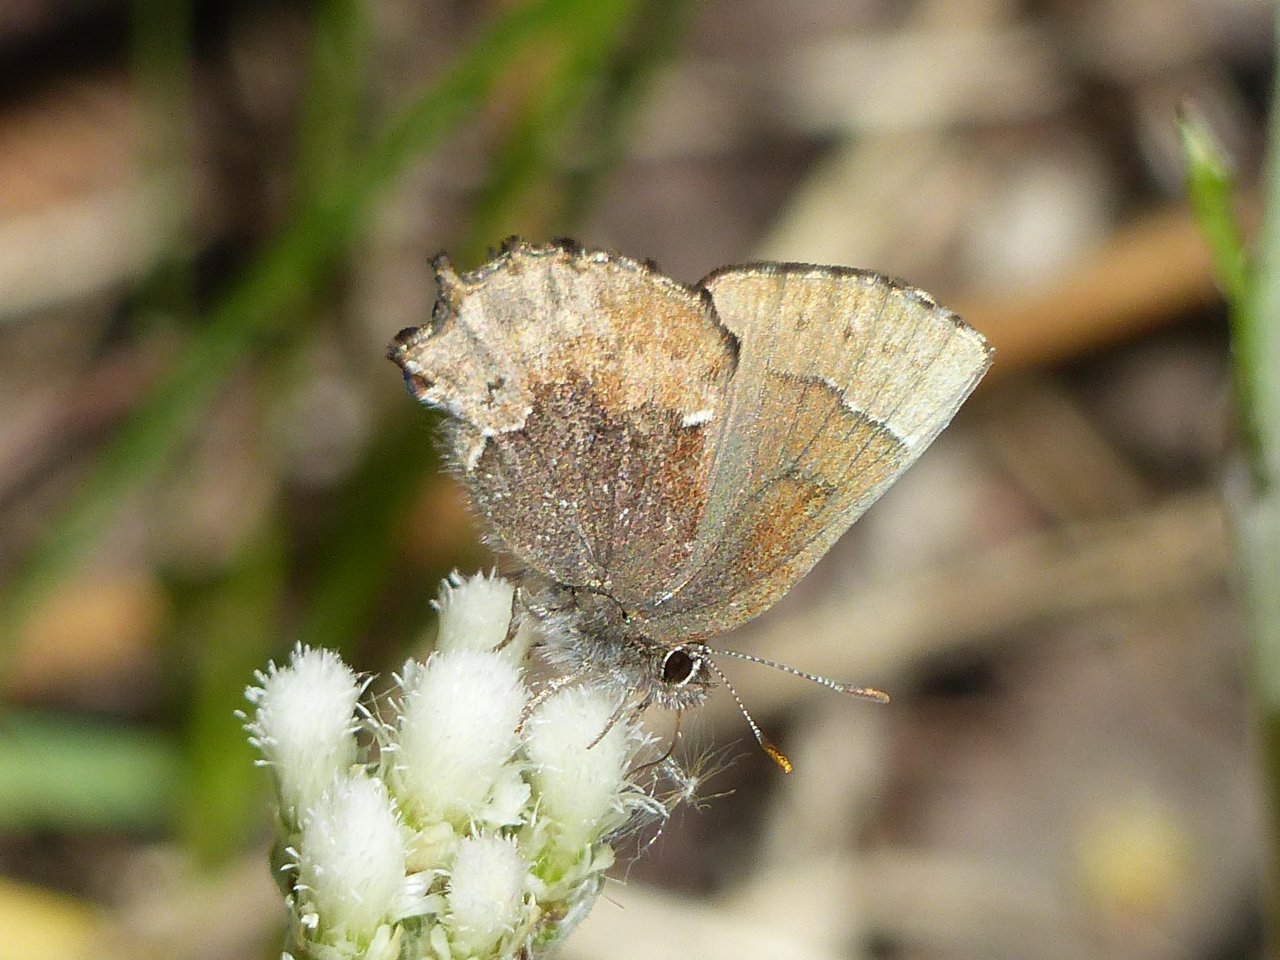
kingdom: Animalia
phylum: Arthropoda
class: Insecta
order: Lepidoptera
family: Lycaenidae
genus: Incisalia
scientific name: Incisalia henrici
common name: Henry's Elfin
